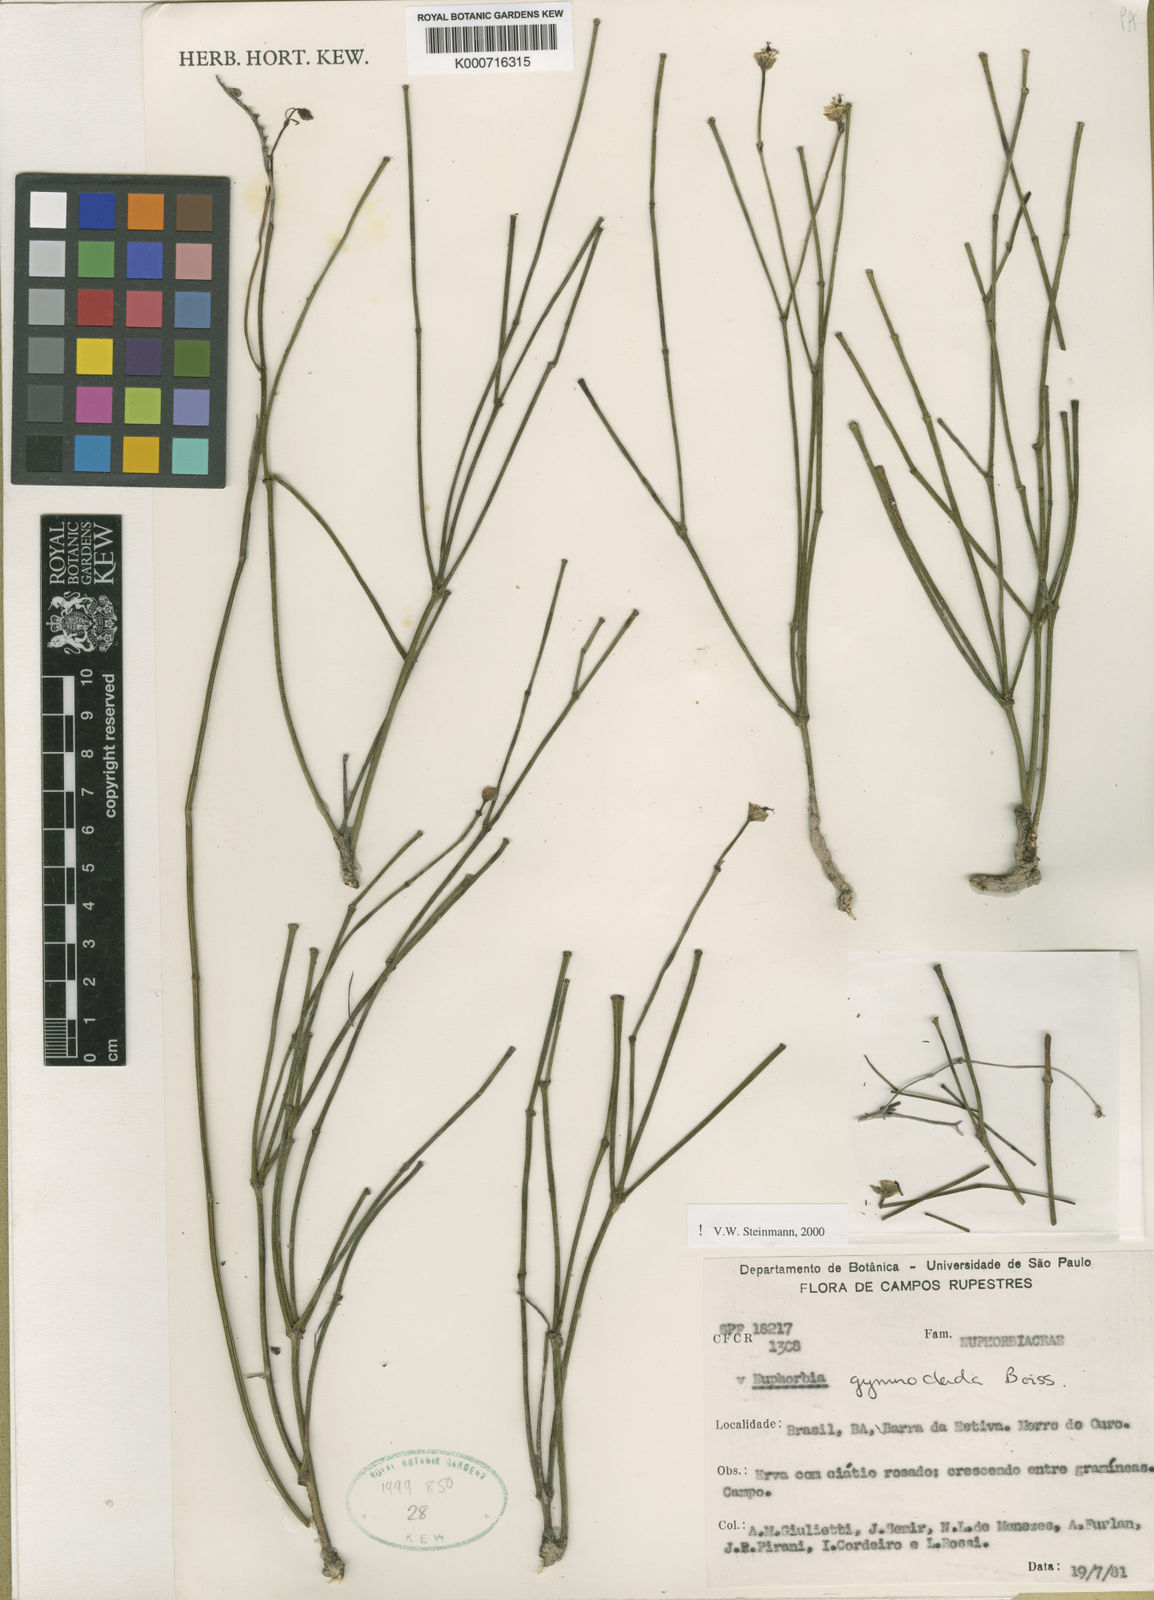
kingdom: Plantae
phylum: Tracheophyta
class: Magnoliopsida
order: Malpighiales
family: Euphorbiaceae
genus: Euphorbia
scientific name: Euphorbia gymnoclada
